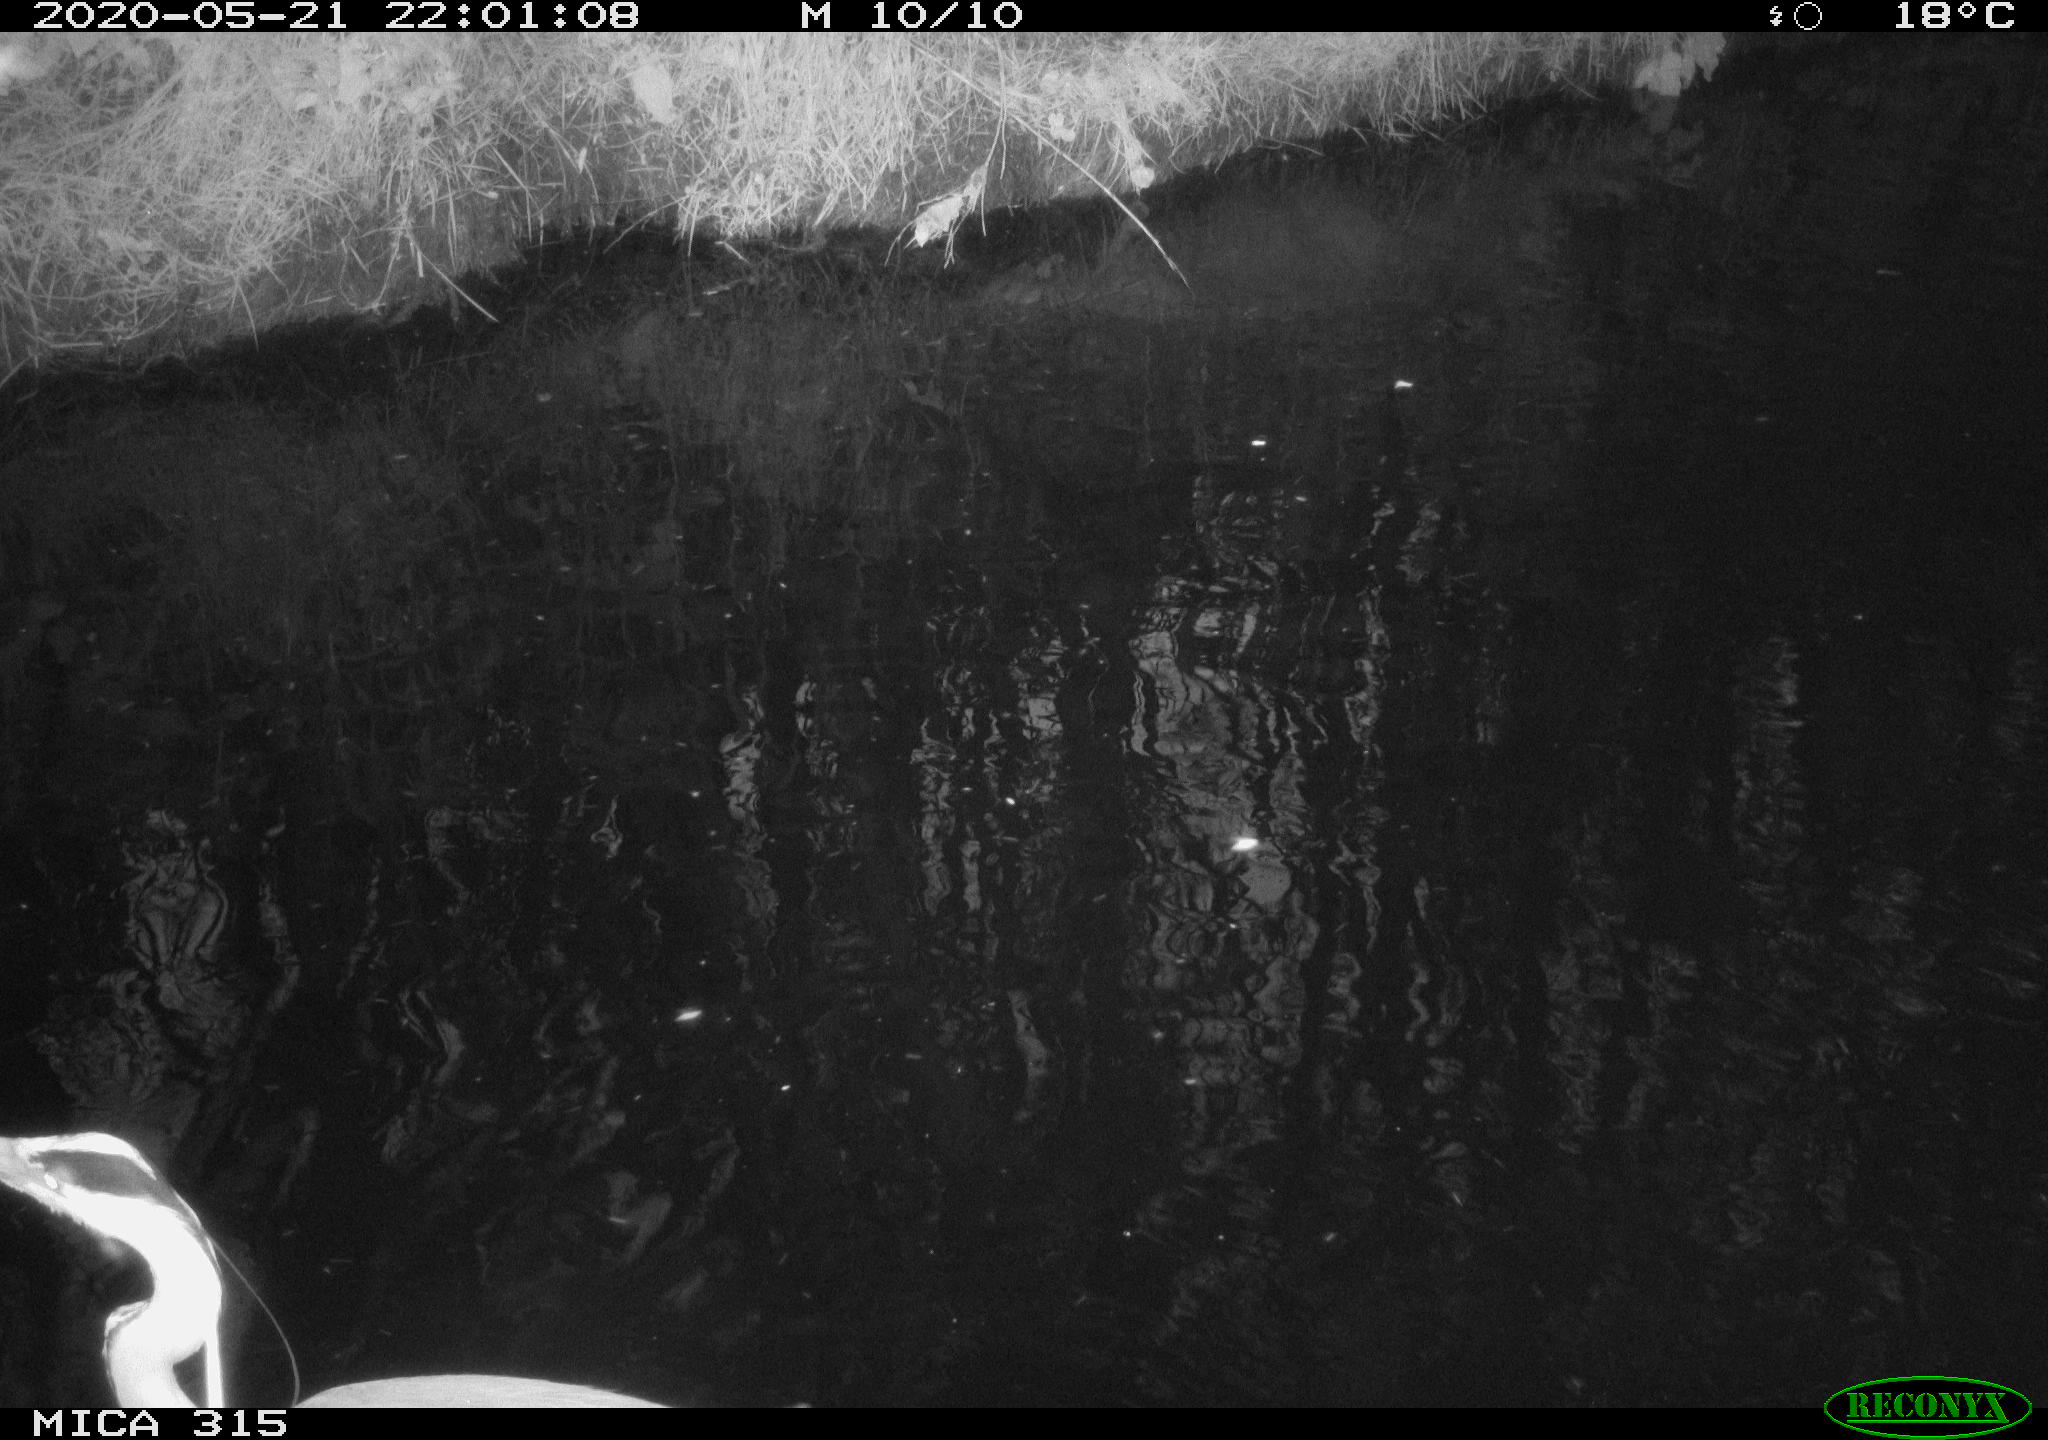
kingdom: Animalia
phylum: Chordata
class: Aves
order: Pelecaniformes
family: Ardeidae
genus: Ardea
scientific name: Ardea cinerea
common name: Grey heron
